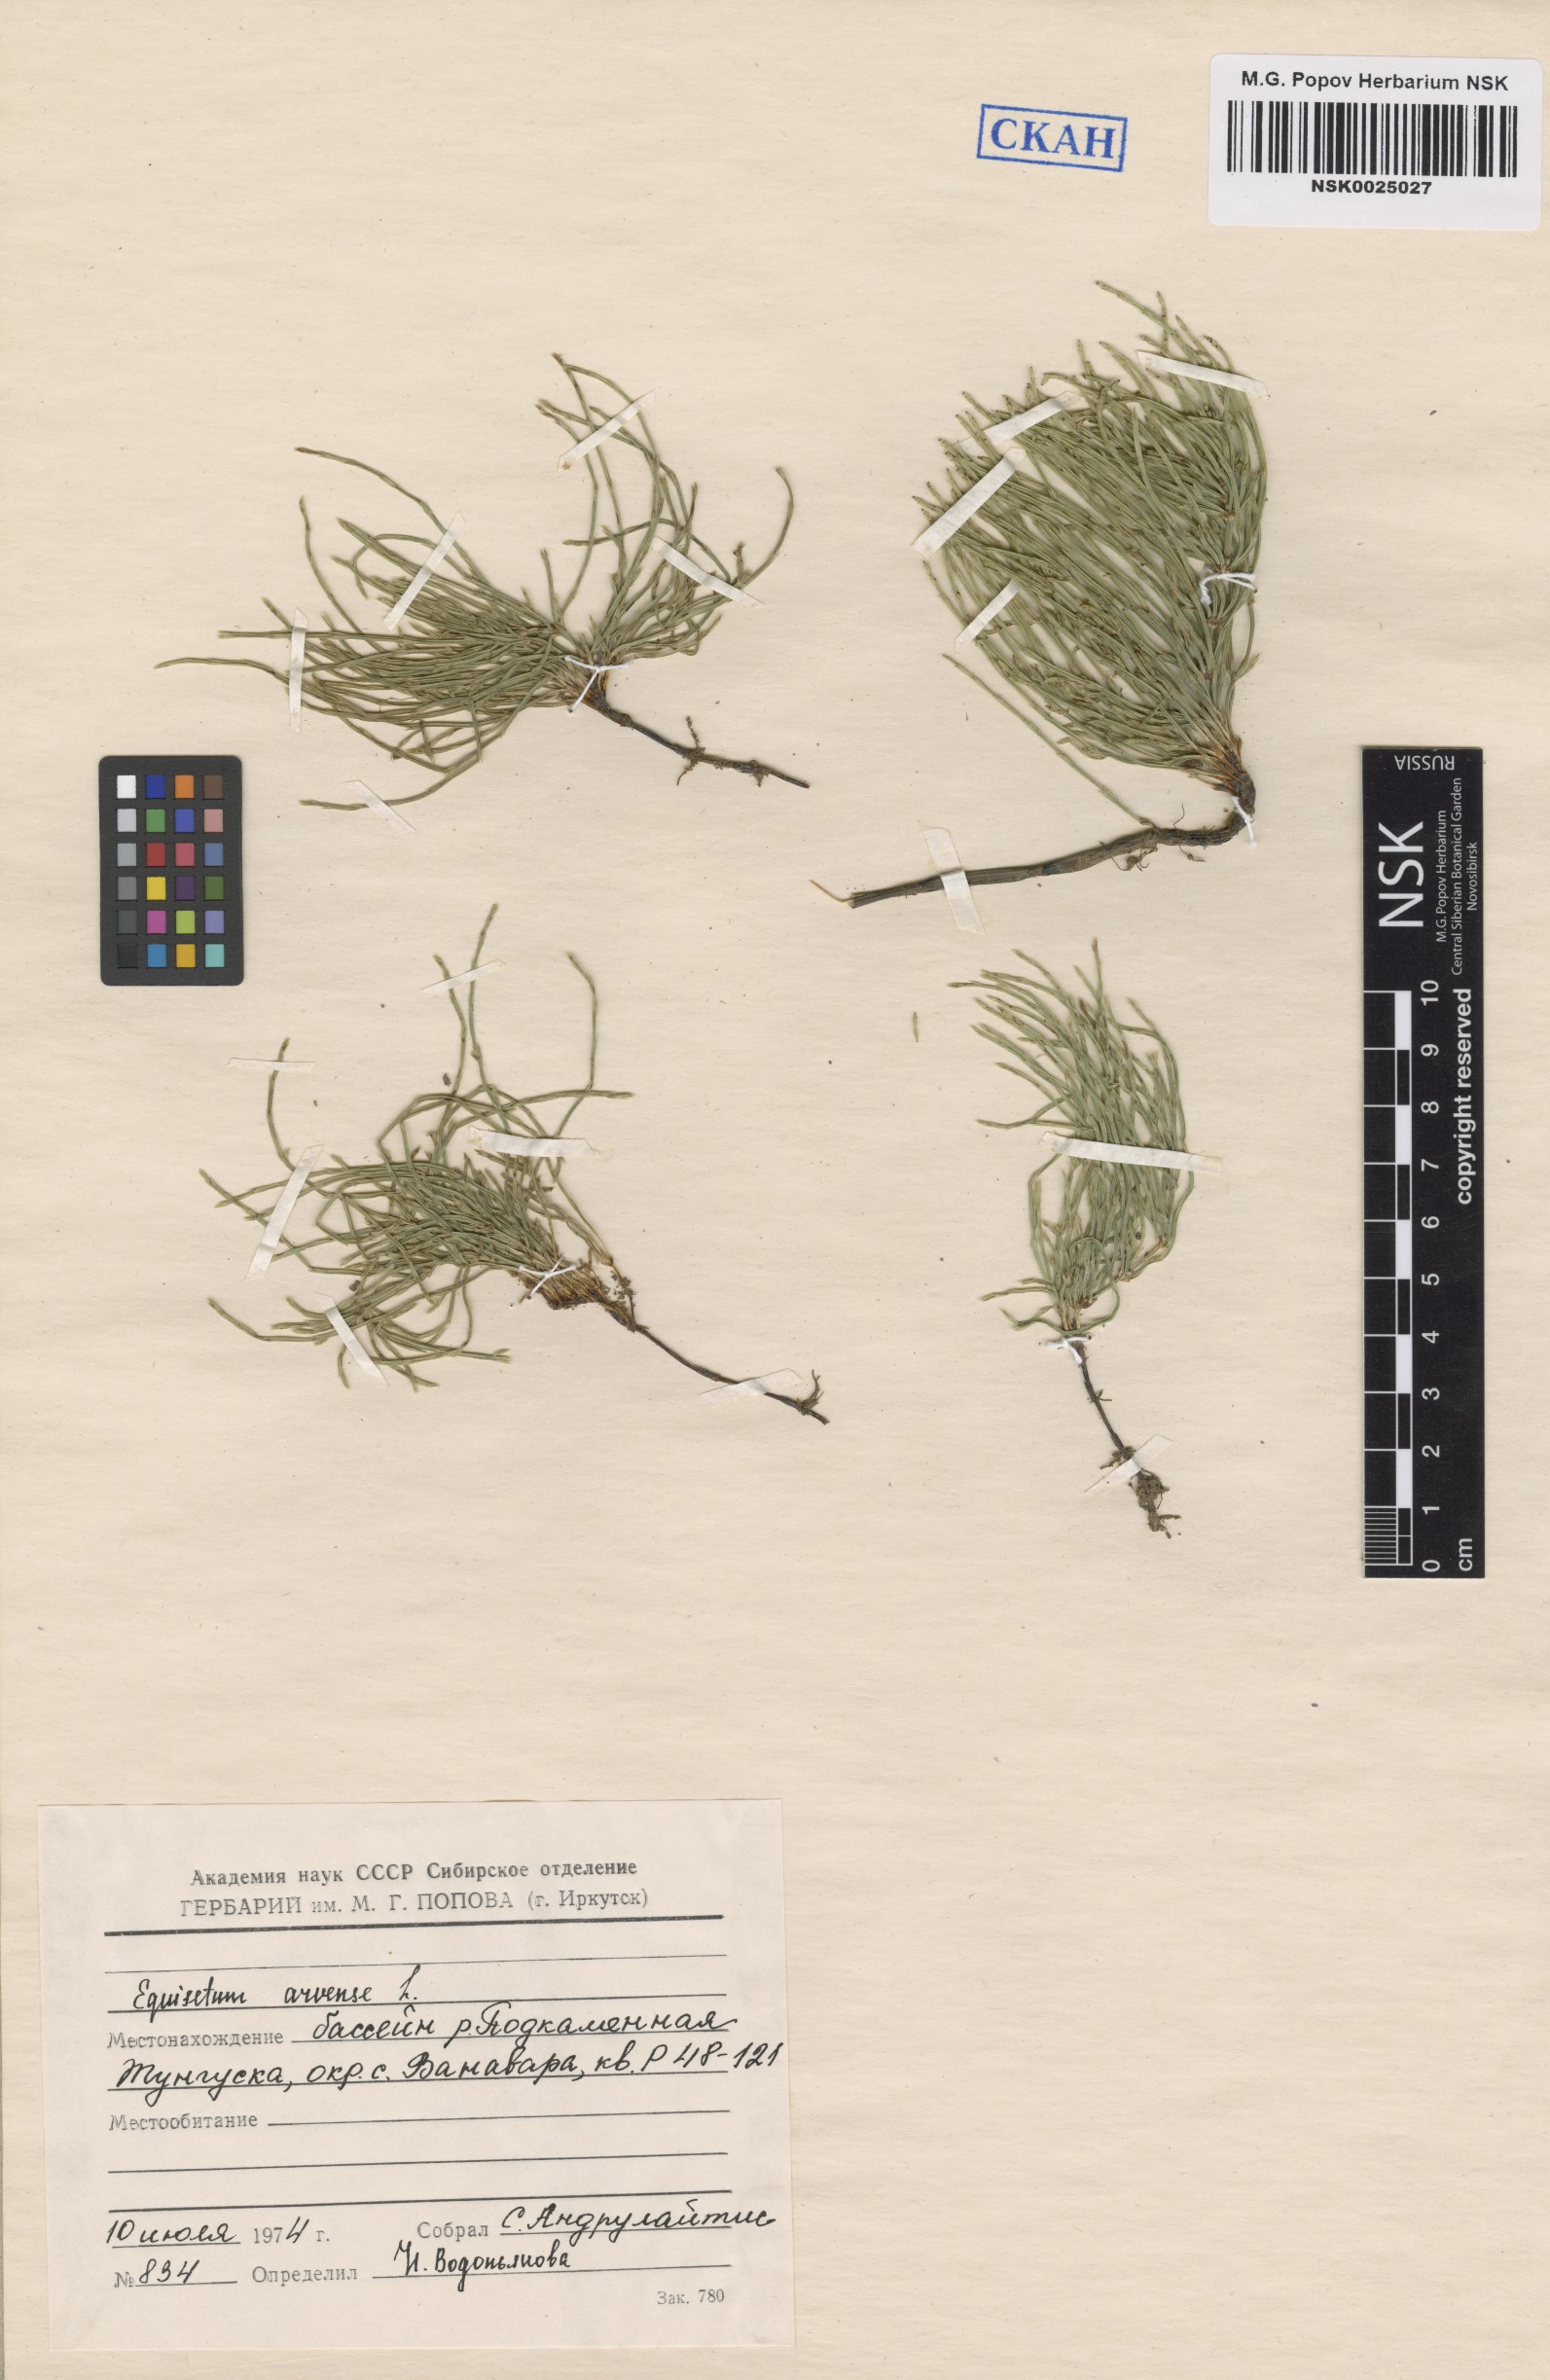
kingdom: Plantae
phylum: Tracheophyta
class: Polypodiopsida
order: Equisetales
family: Equisetaceae
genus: Equisetum
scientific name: Equisetum arvense
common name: Field horsetail
